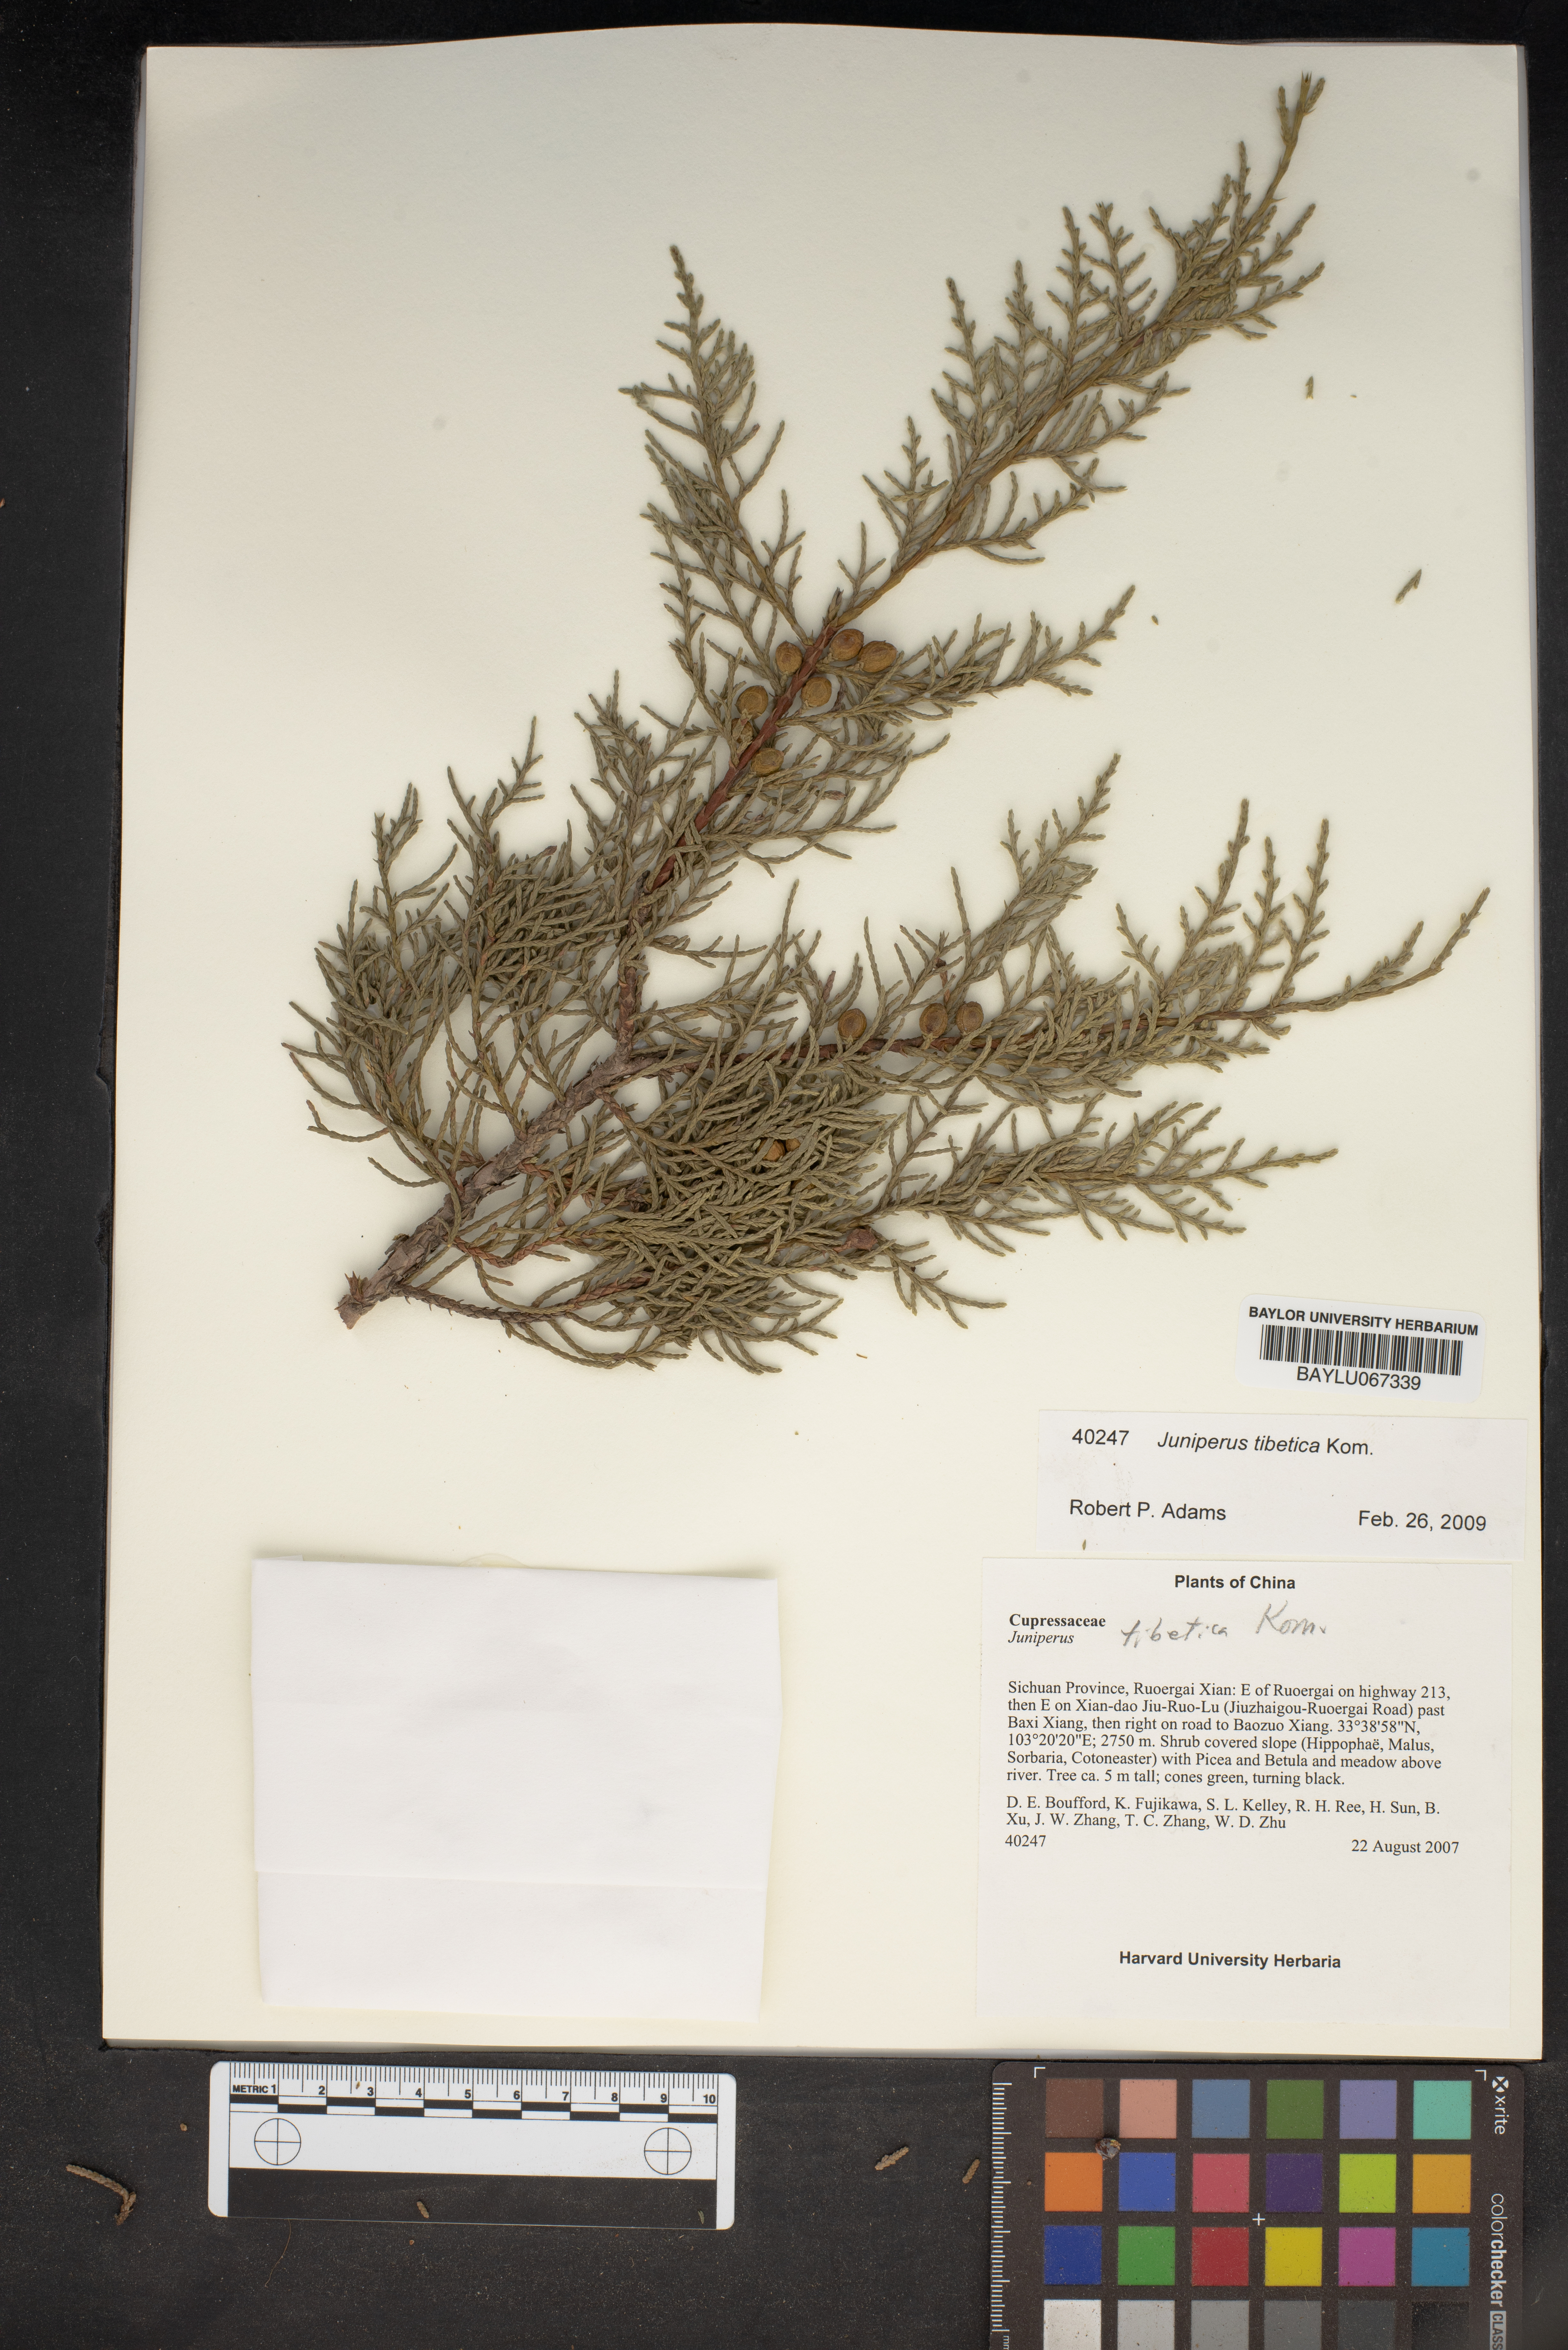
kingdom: Plantae
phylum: Tracheophyta
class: Pinopsida
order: Pinales
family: Cupressaceae
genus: Juniperus
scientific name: Juniperus tibetica
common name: Tibetan juniper
